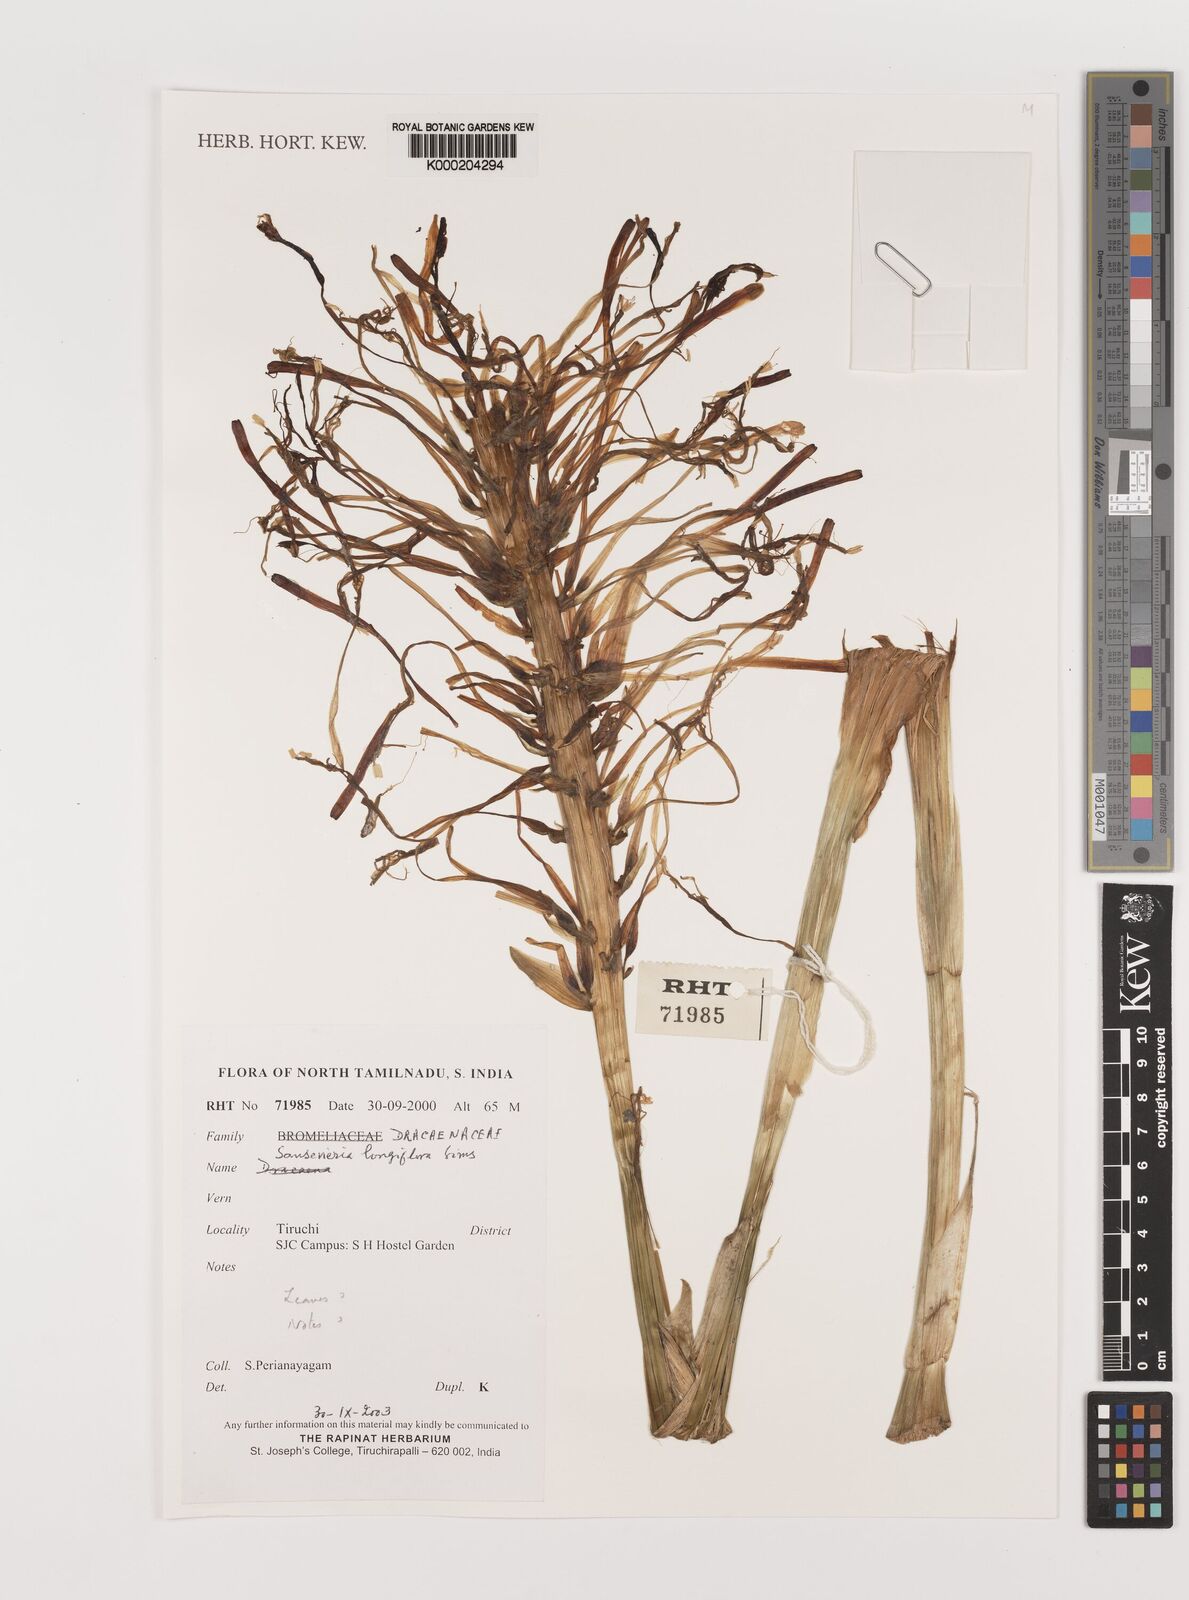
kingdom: Plantae
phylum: Tracheophyta
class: Liliopsida
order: Asparagales
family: Asparagaceae
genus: Dracaena
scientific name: Dracaena longiflora
